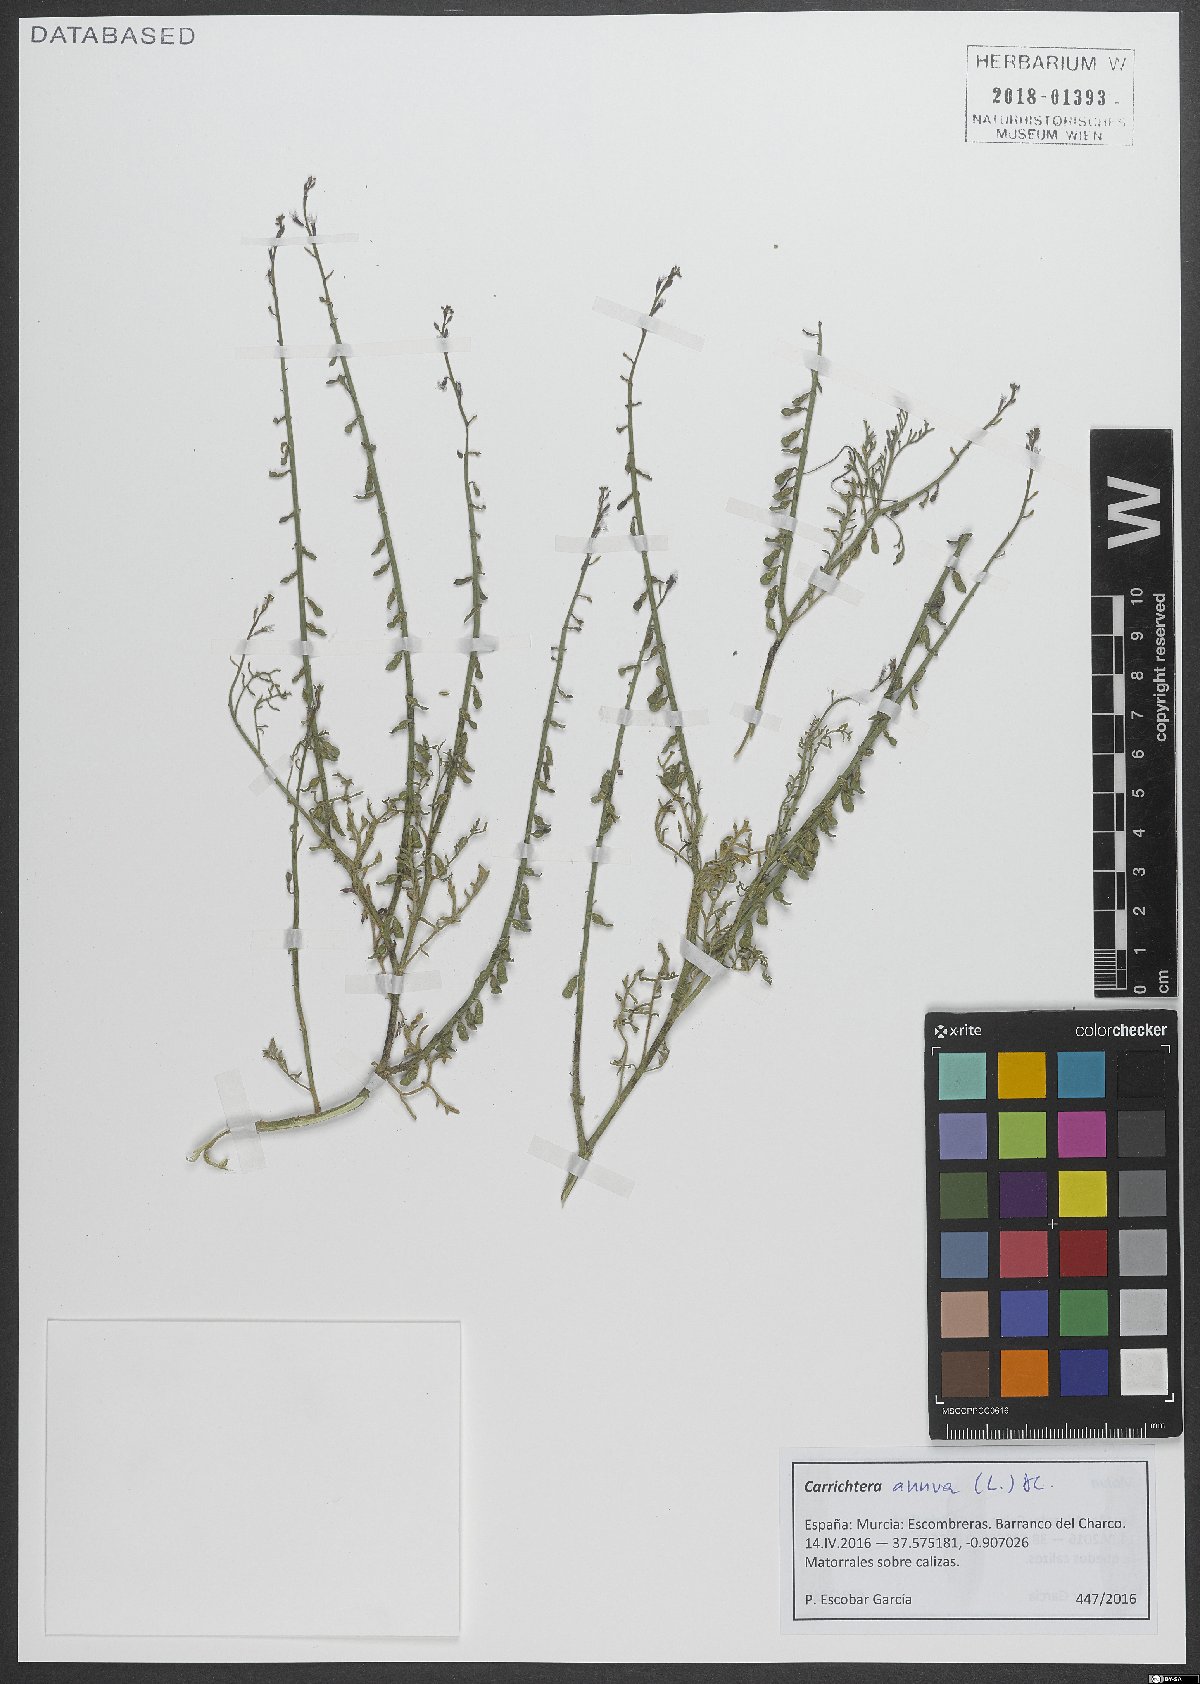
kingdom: Plantae
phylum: Tracheophyta
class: Magnoliopsida
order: Brassicales
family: Brassicaceae
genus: Carrichtera
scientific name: Carrichtera annua
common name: Cress rocket
